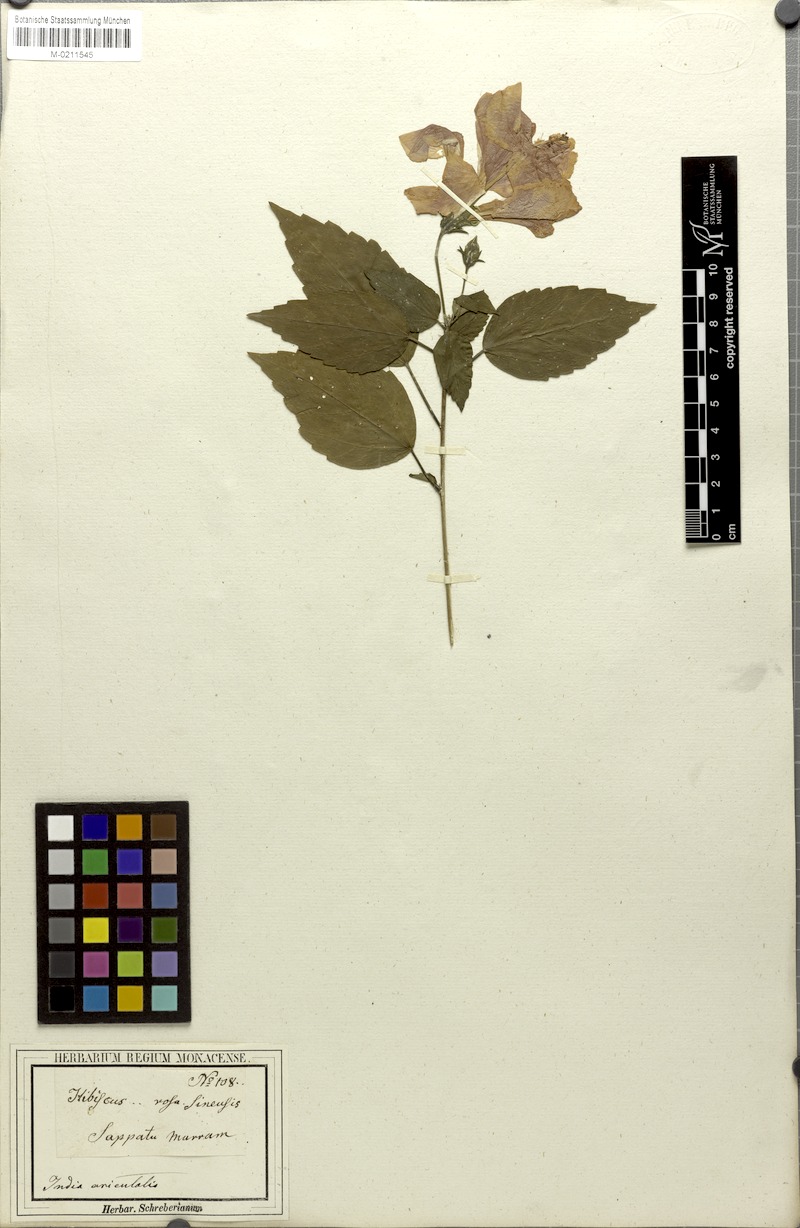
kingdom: Plantae
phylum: Tracheophyta
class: Magnoliopsida
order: Malvales
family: Malvaceae
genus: Hibiscus
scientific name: Hibiscus rosa-sinensis
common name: Hibiscus
